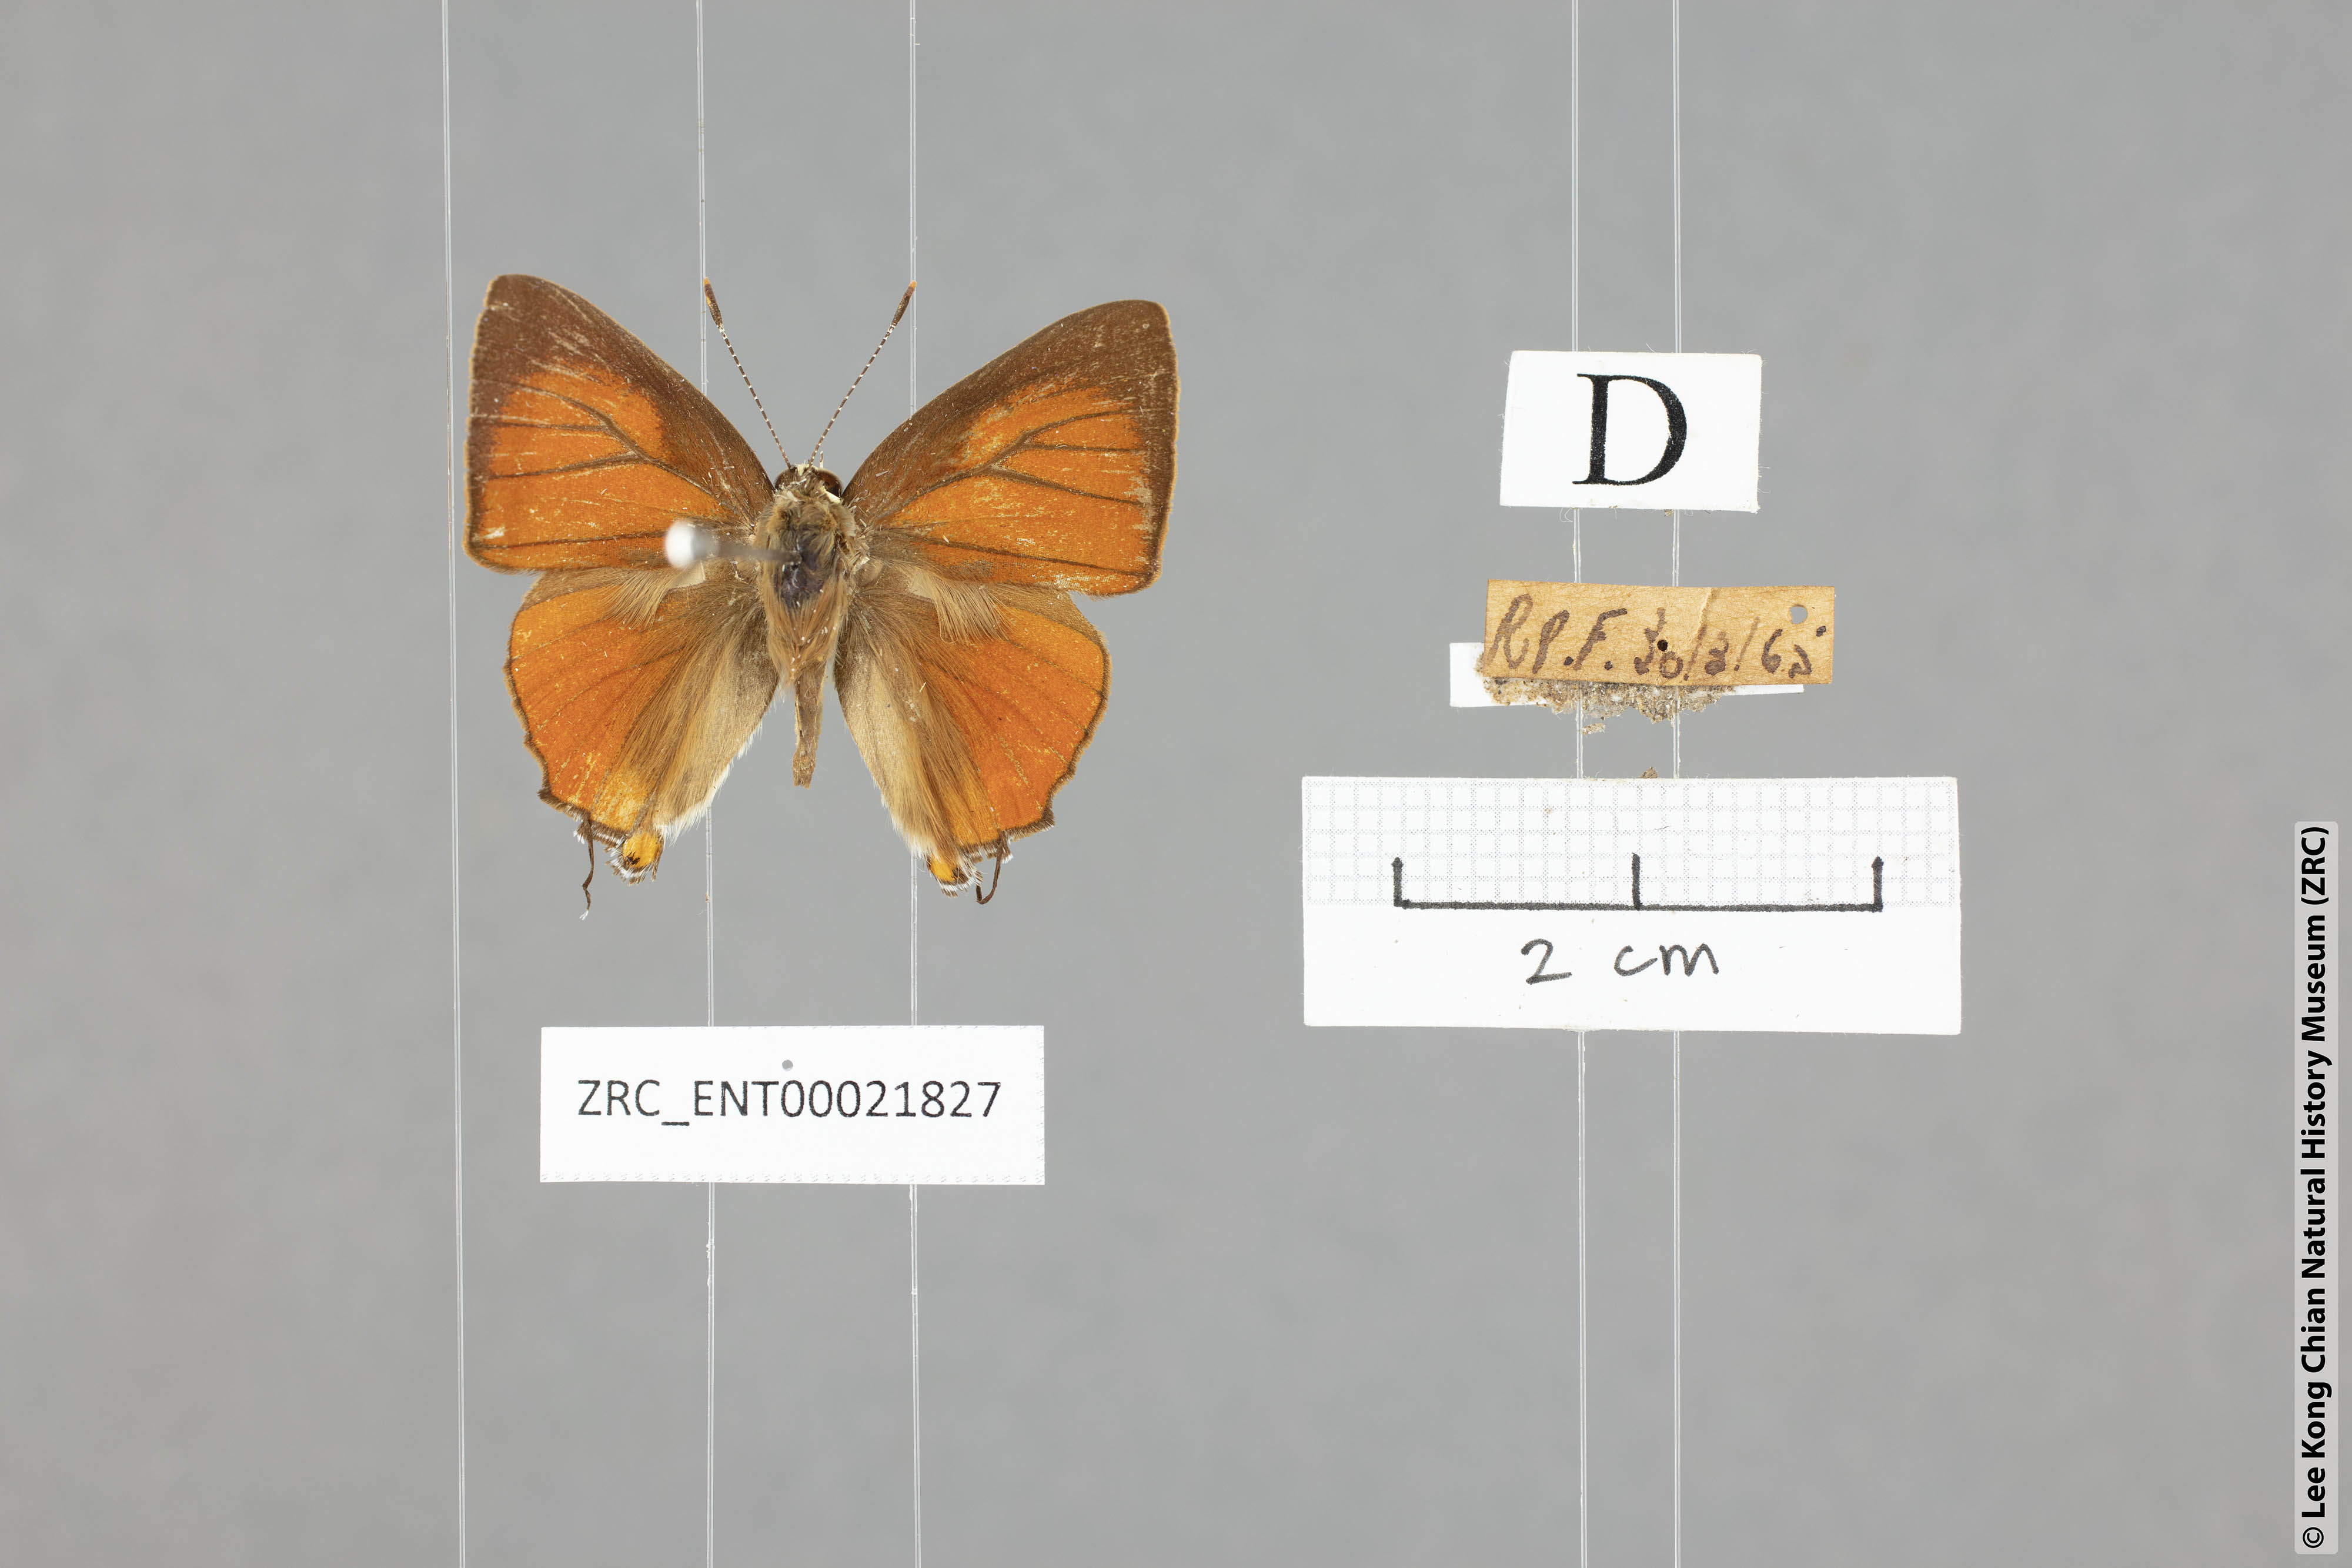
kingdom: Animalia
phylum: Arthropoda
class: Insecta
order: Lepidoptera
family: Lycaenidae
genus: Rapala
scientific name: Rapala iarbas
